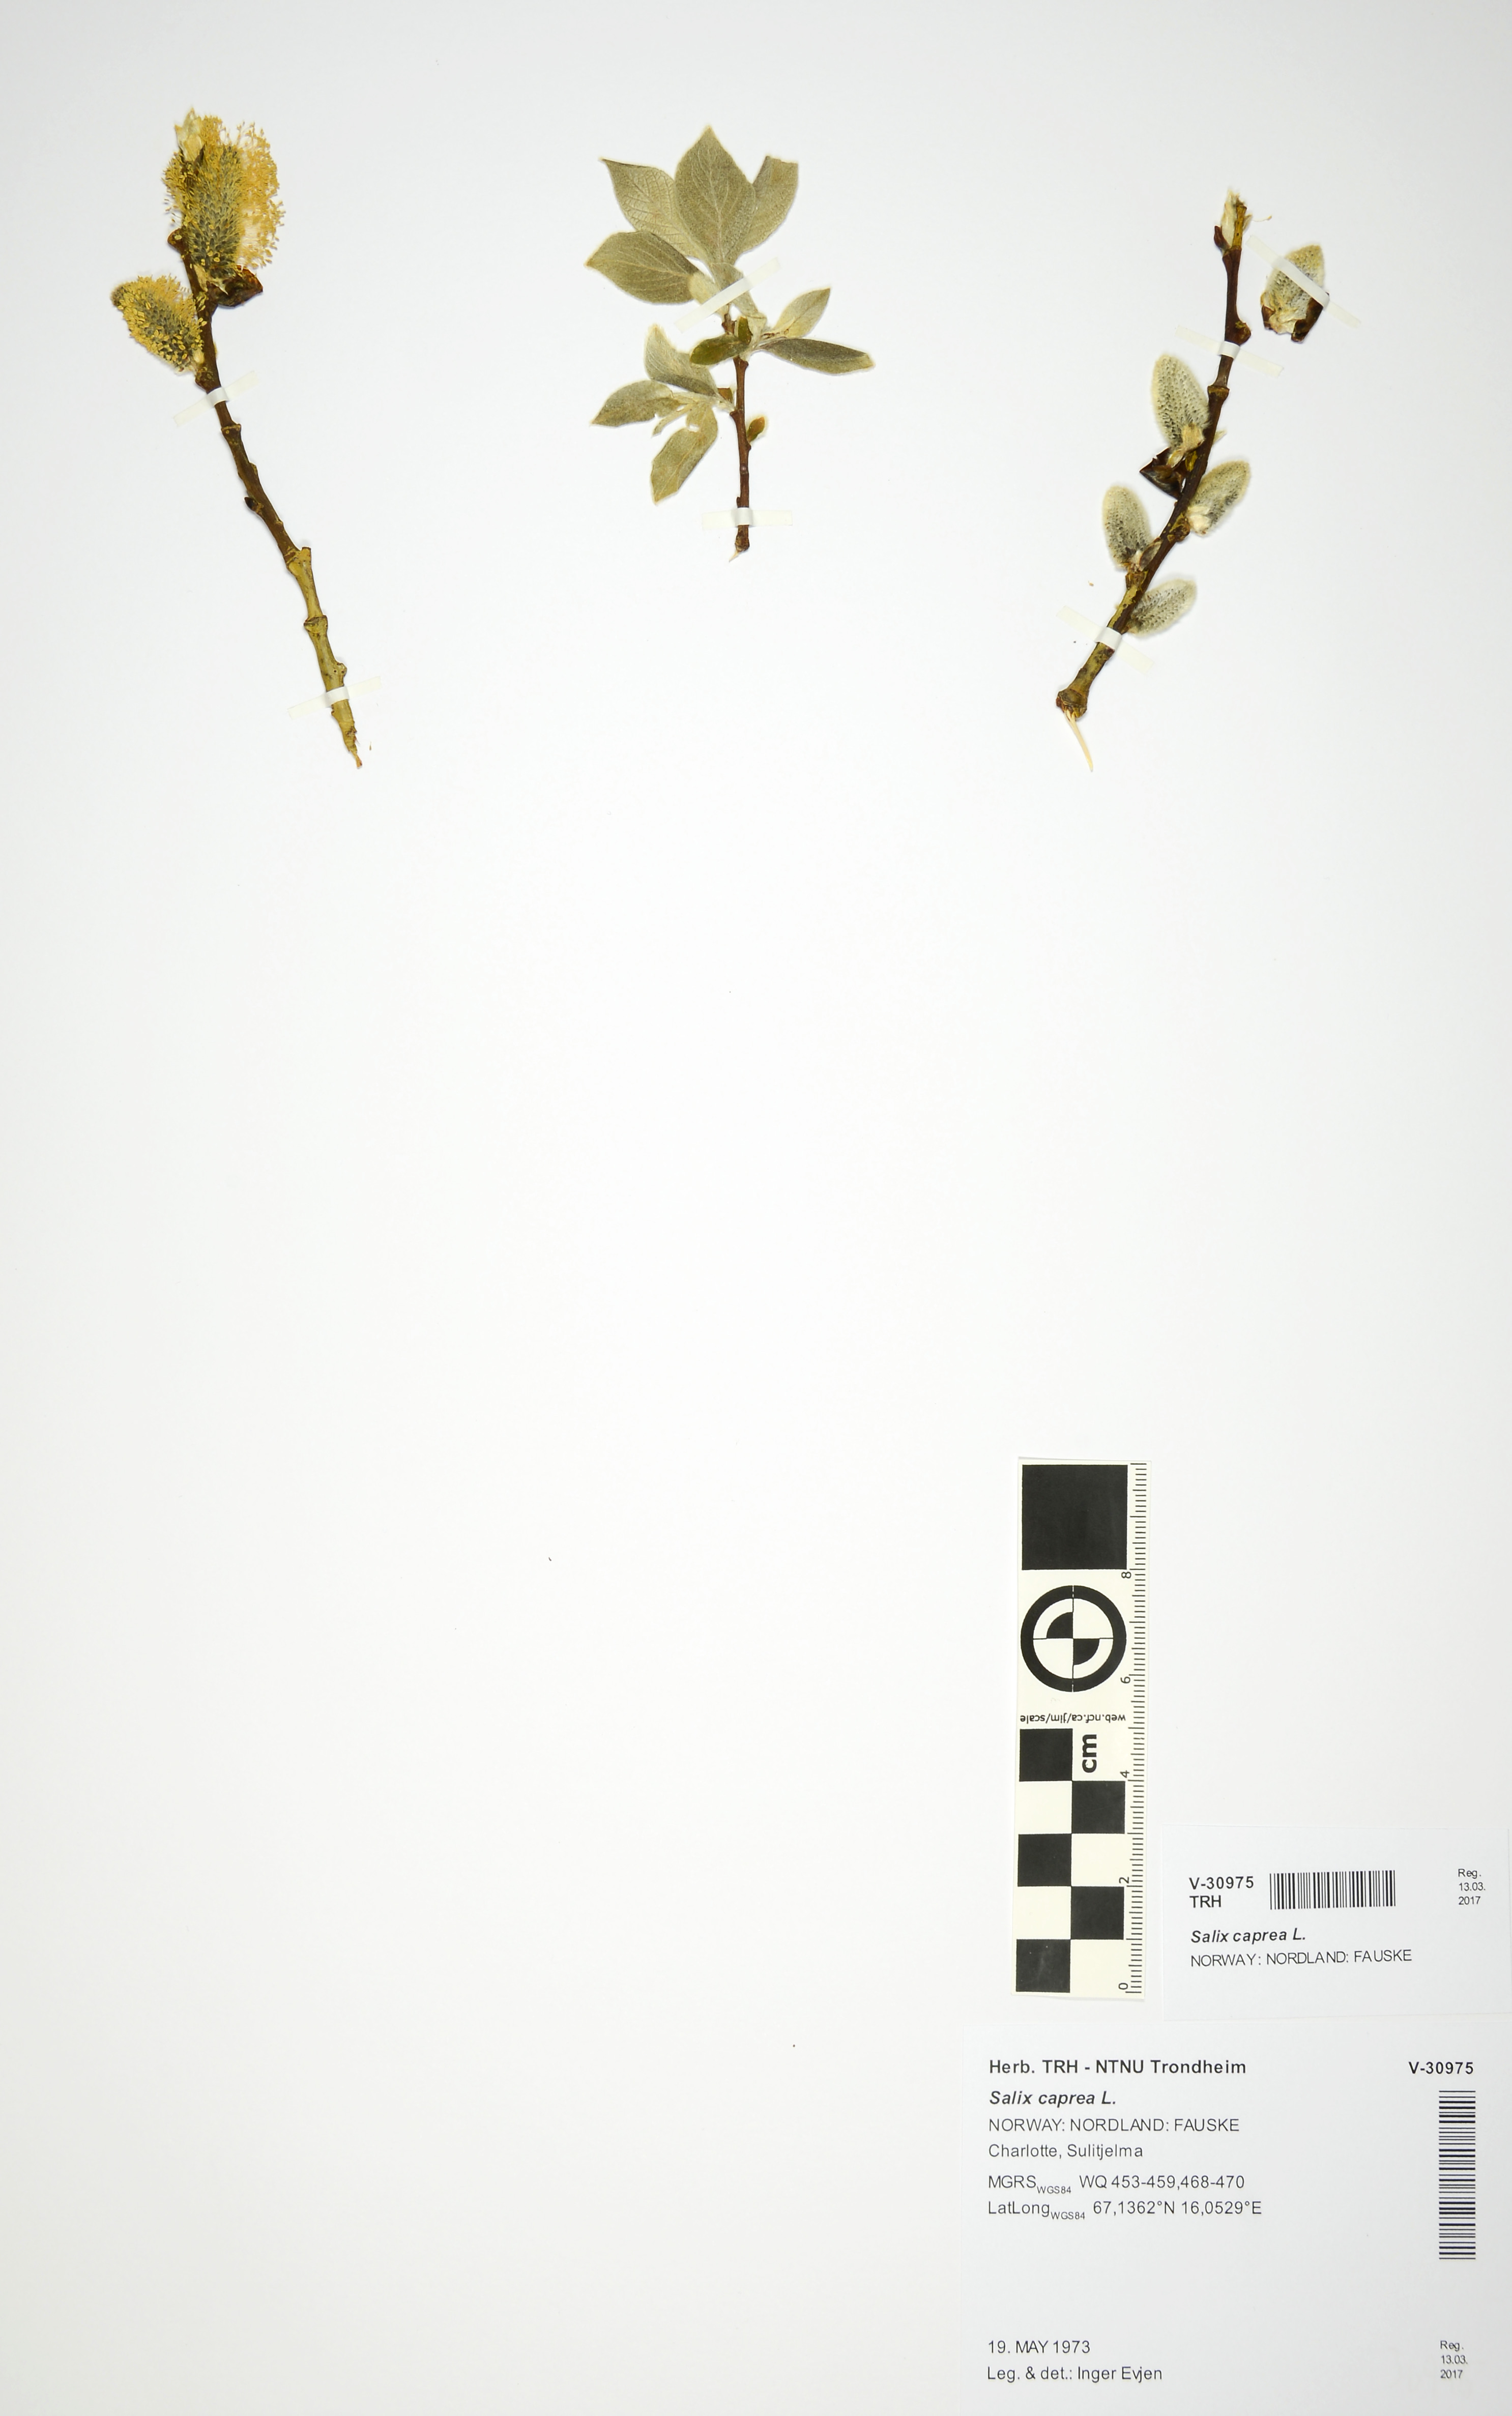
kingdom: Plantae
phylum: Tracheophyta
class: Magnoliopsida
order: Malpighiales
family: Salicaceae
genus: Salix
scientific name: Salix caprea
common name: Goat willow
